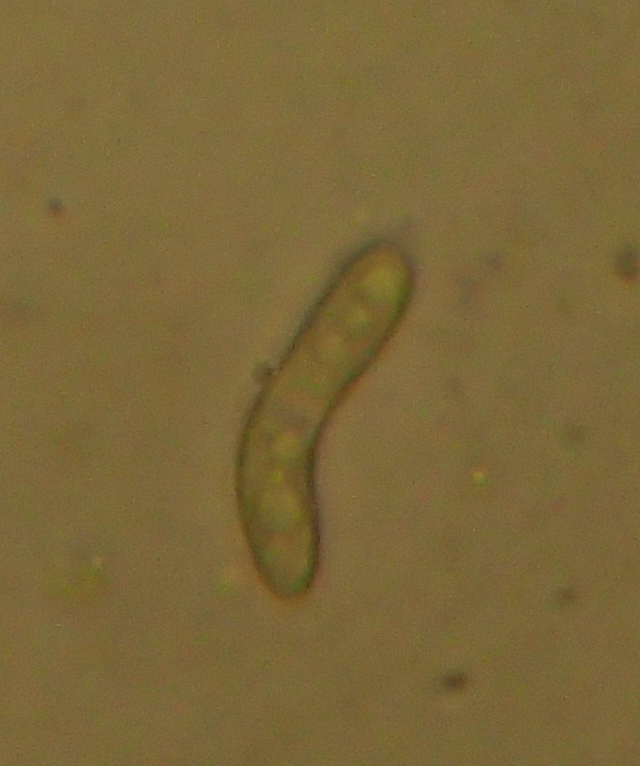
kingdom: Fungi
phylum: Ascomycota
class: Sordariomycetes
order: Sordariales
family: Helminthosphaeriaceae
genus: Ruzenia
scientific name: Ruzenia spermoides
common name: glat børstekerne
